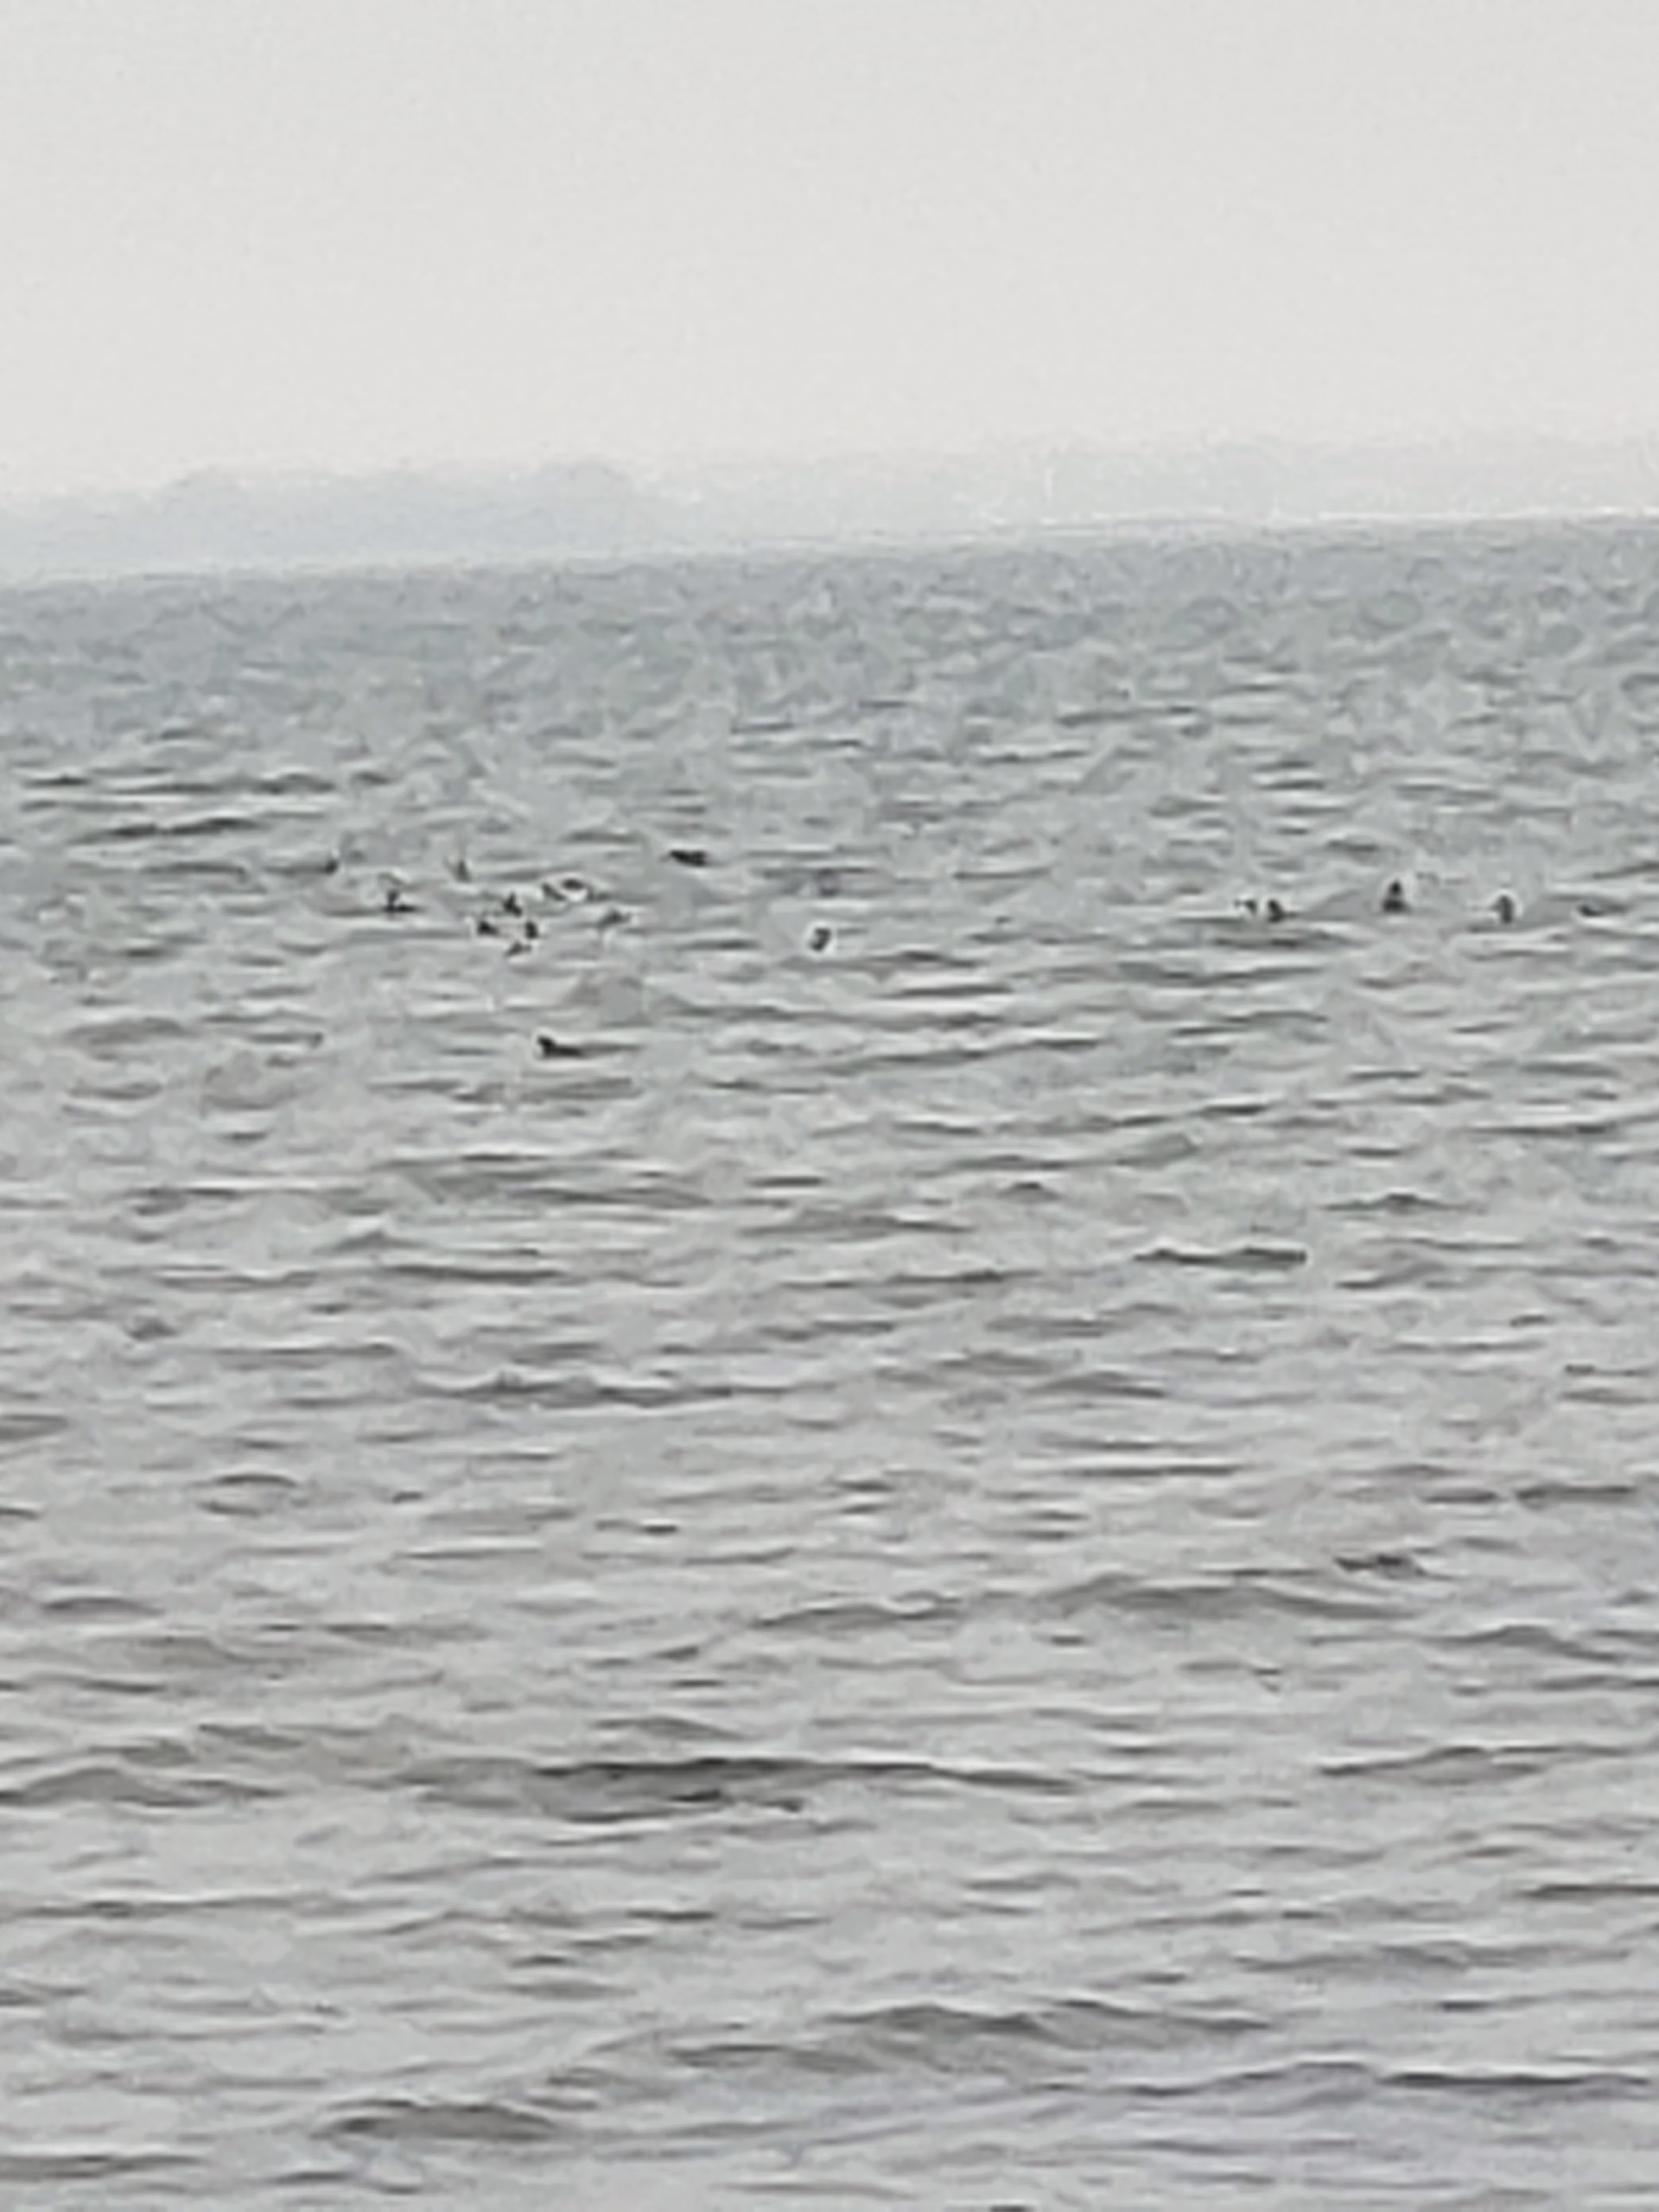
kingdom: Animalia
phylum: Chordata
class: Aves
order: Anseriformes
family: Anatidae
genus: Somateria
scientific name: Somateria mollissima
